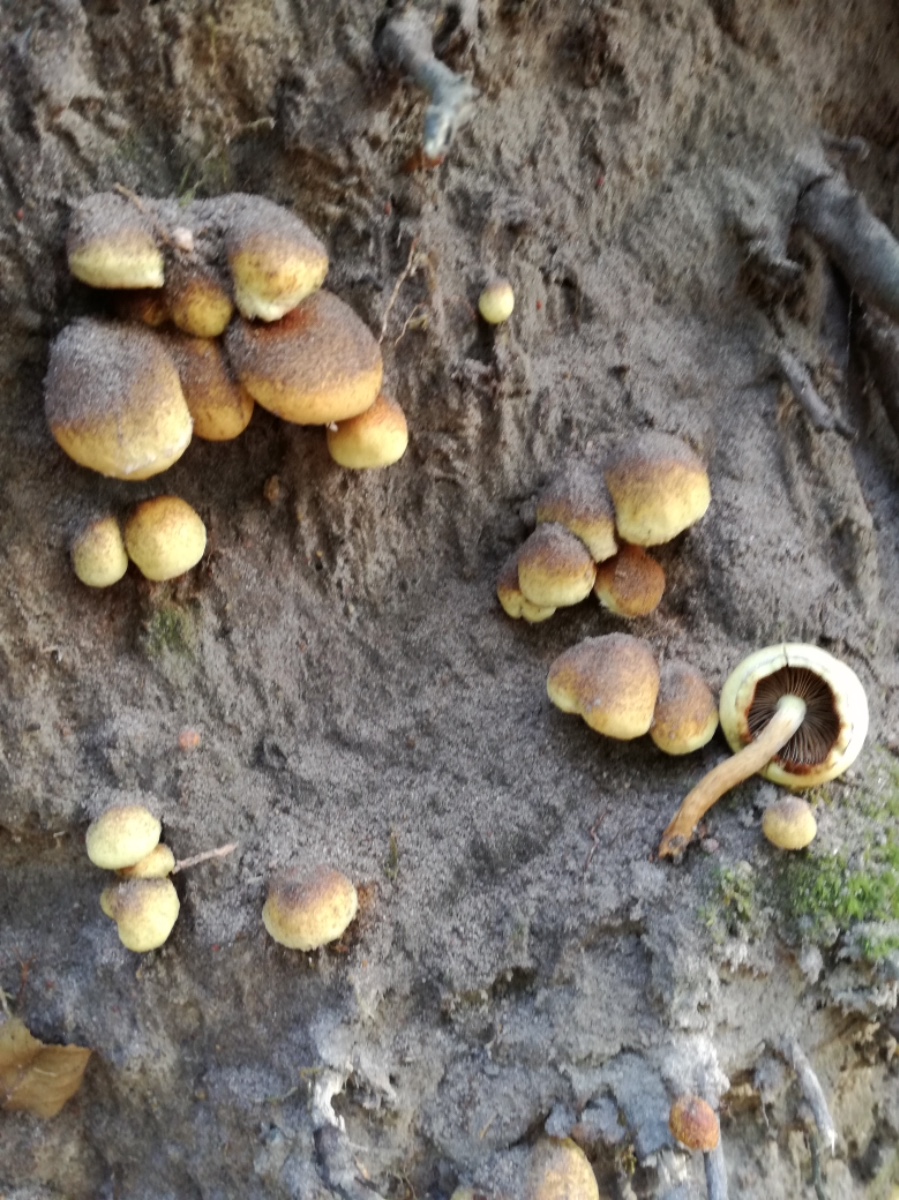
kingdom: Fungi
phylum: Basidiomycota
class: Agaricomycetes
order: Agaricales
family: Hymenogastraceae
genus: Flammula
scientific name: Flammula alnicola
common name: elle-skælhat
